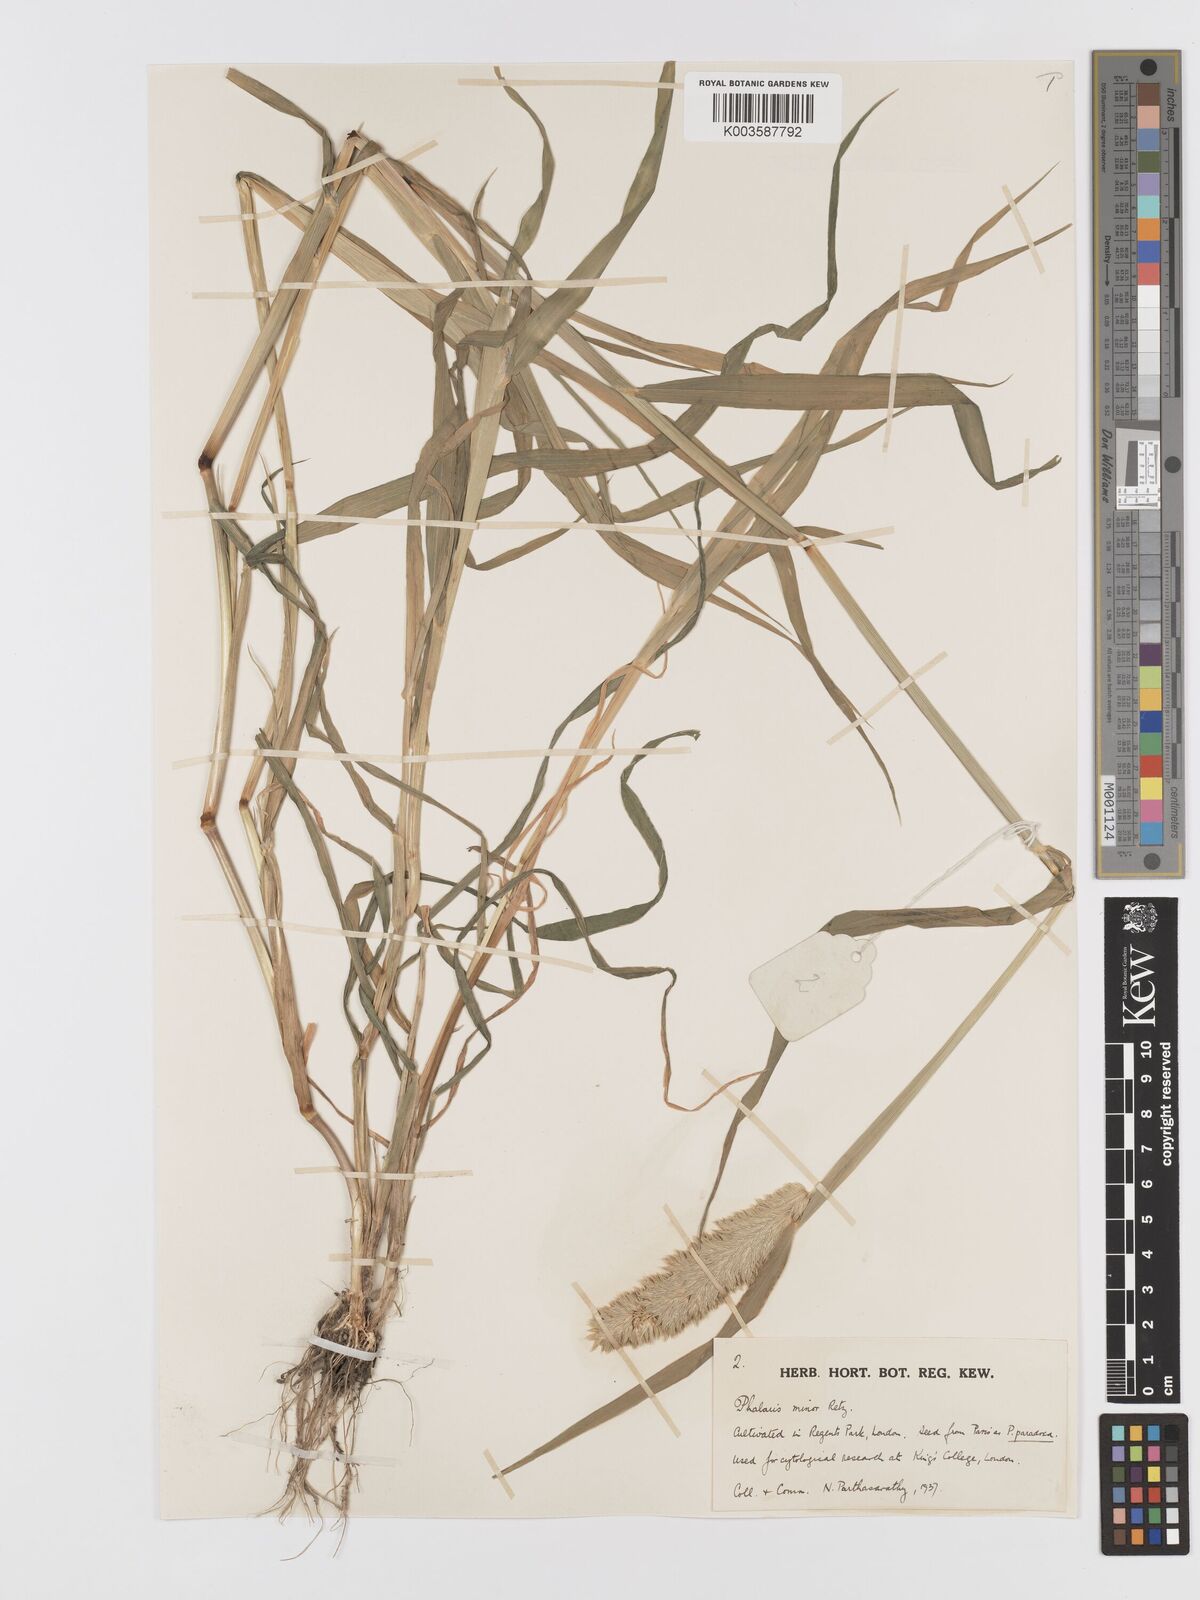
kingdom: Plantae
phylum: Tracheophyta
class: Liliopsida
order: Poales
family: Poaceae
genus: Phalaris
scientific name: Phalaris minor
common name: Littleseed canarygrass
